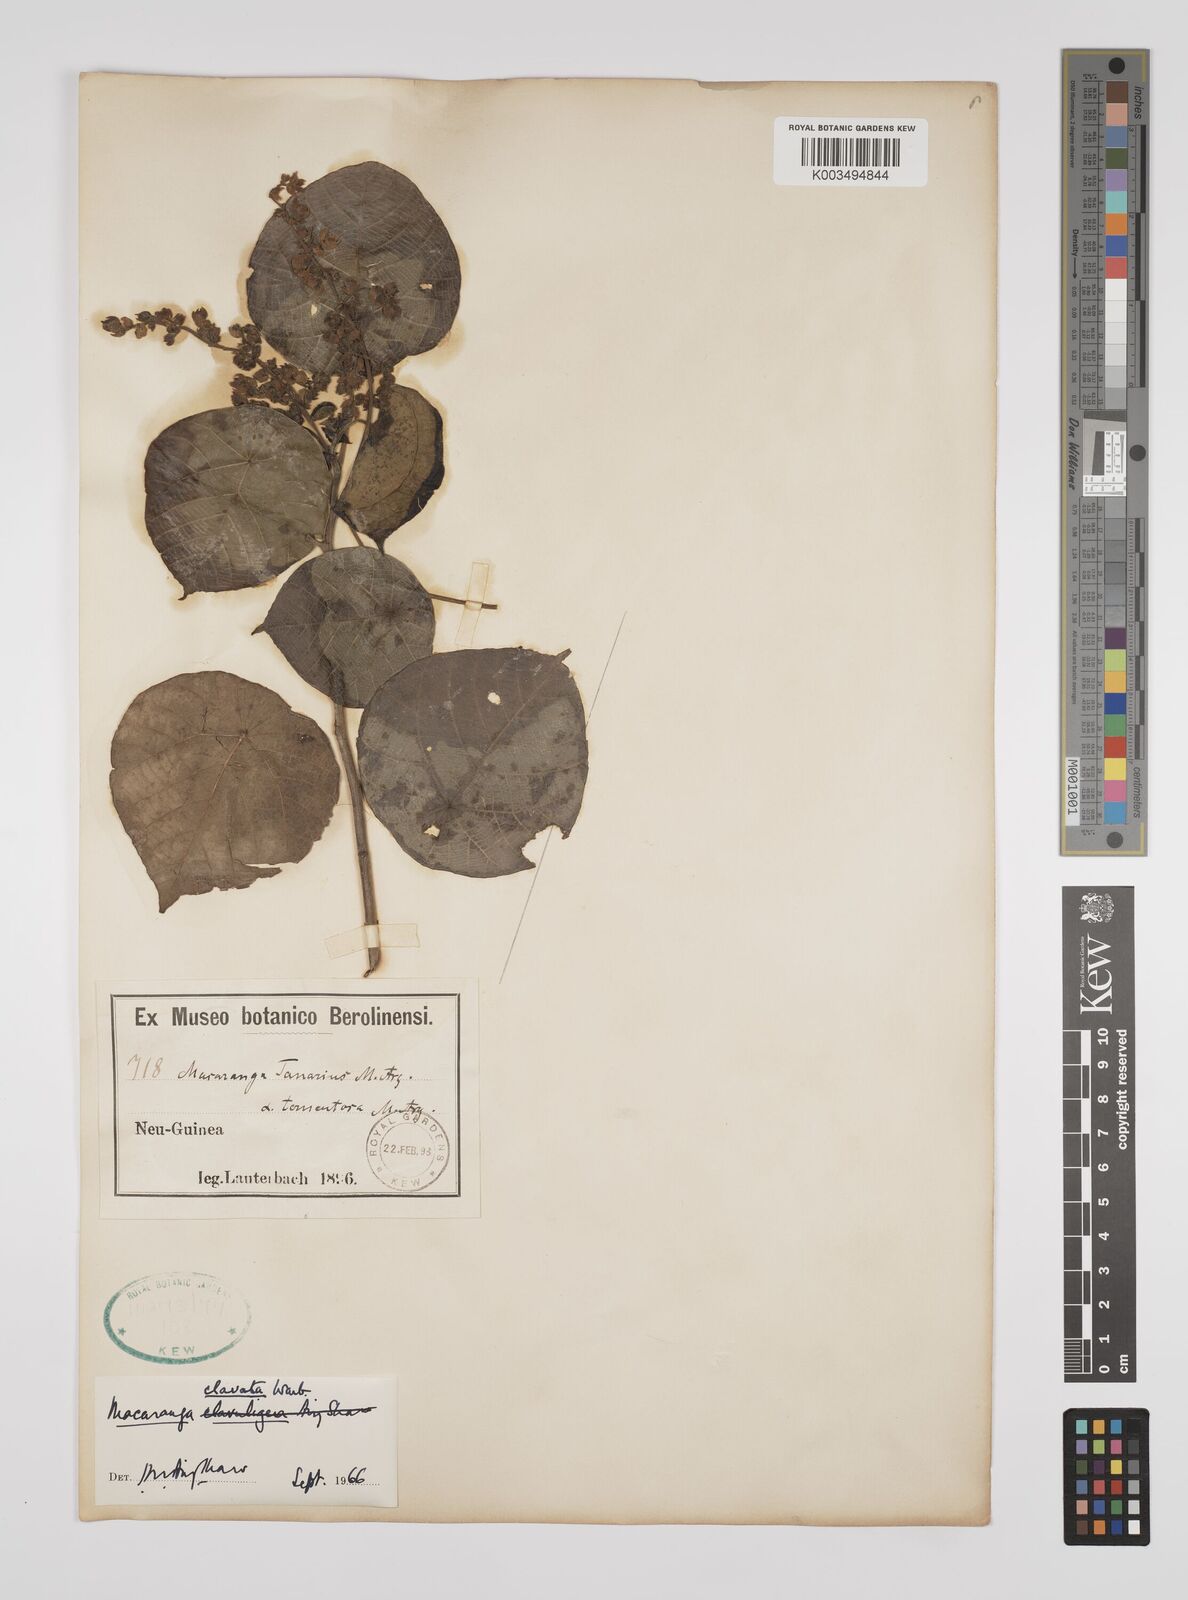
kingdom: Plantae
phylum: Tracheophyta
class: Magnoliopsida
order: Malpighiales
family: Euphorbiaceae
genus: Macaranga
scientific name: Macaranga clavata
